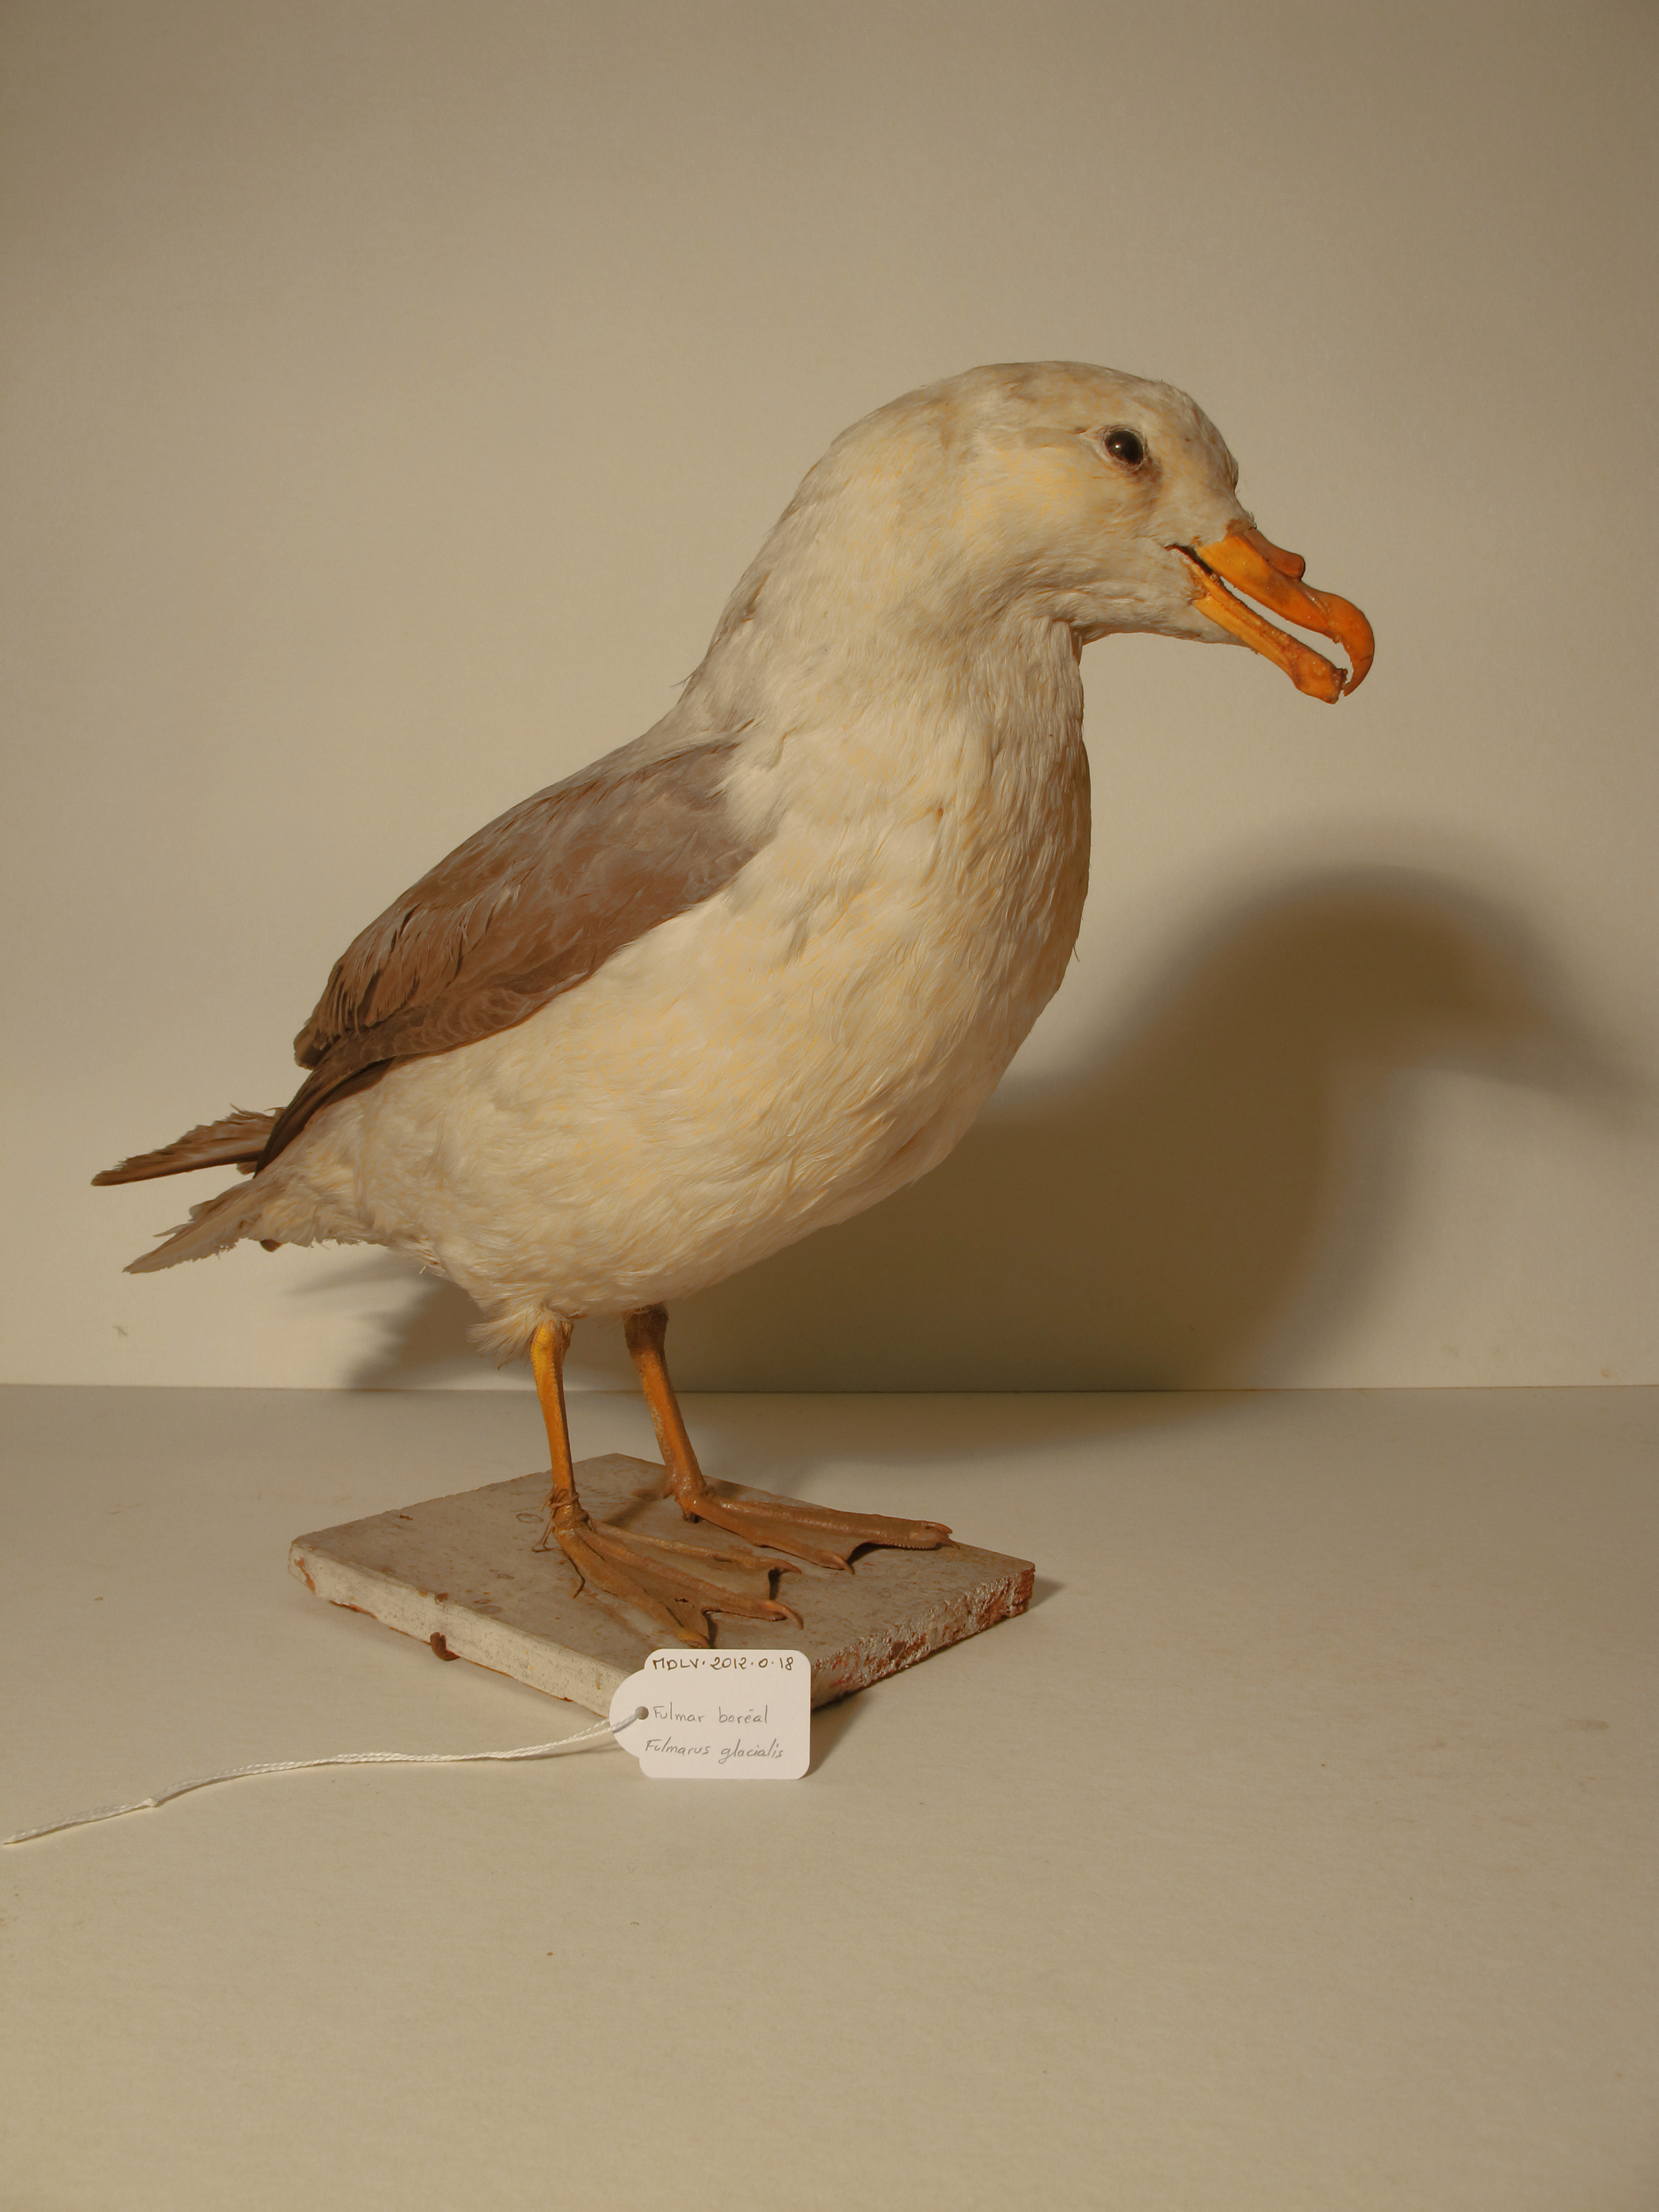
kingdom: Animalia
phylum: Chordata
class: Aves
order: Procellariiformes
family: Procellariidae
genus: Fulmarus
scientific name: Fulmarus glacialis
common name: Northern Fulmar
